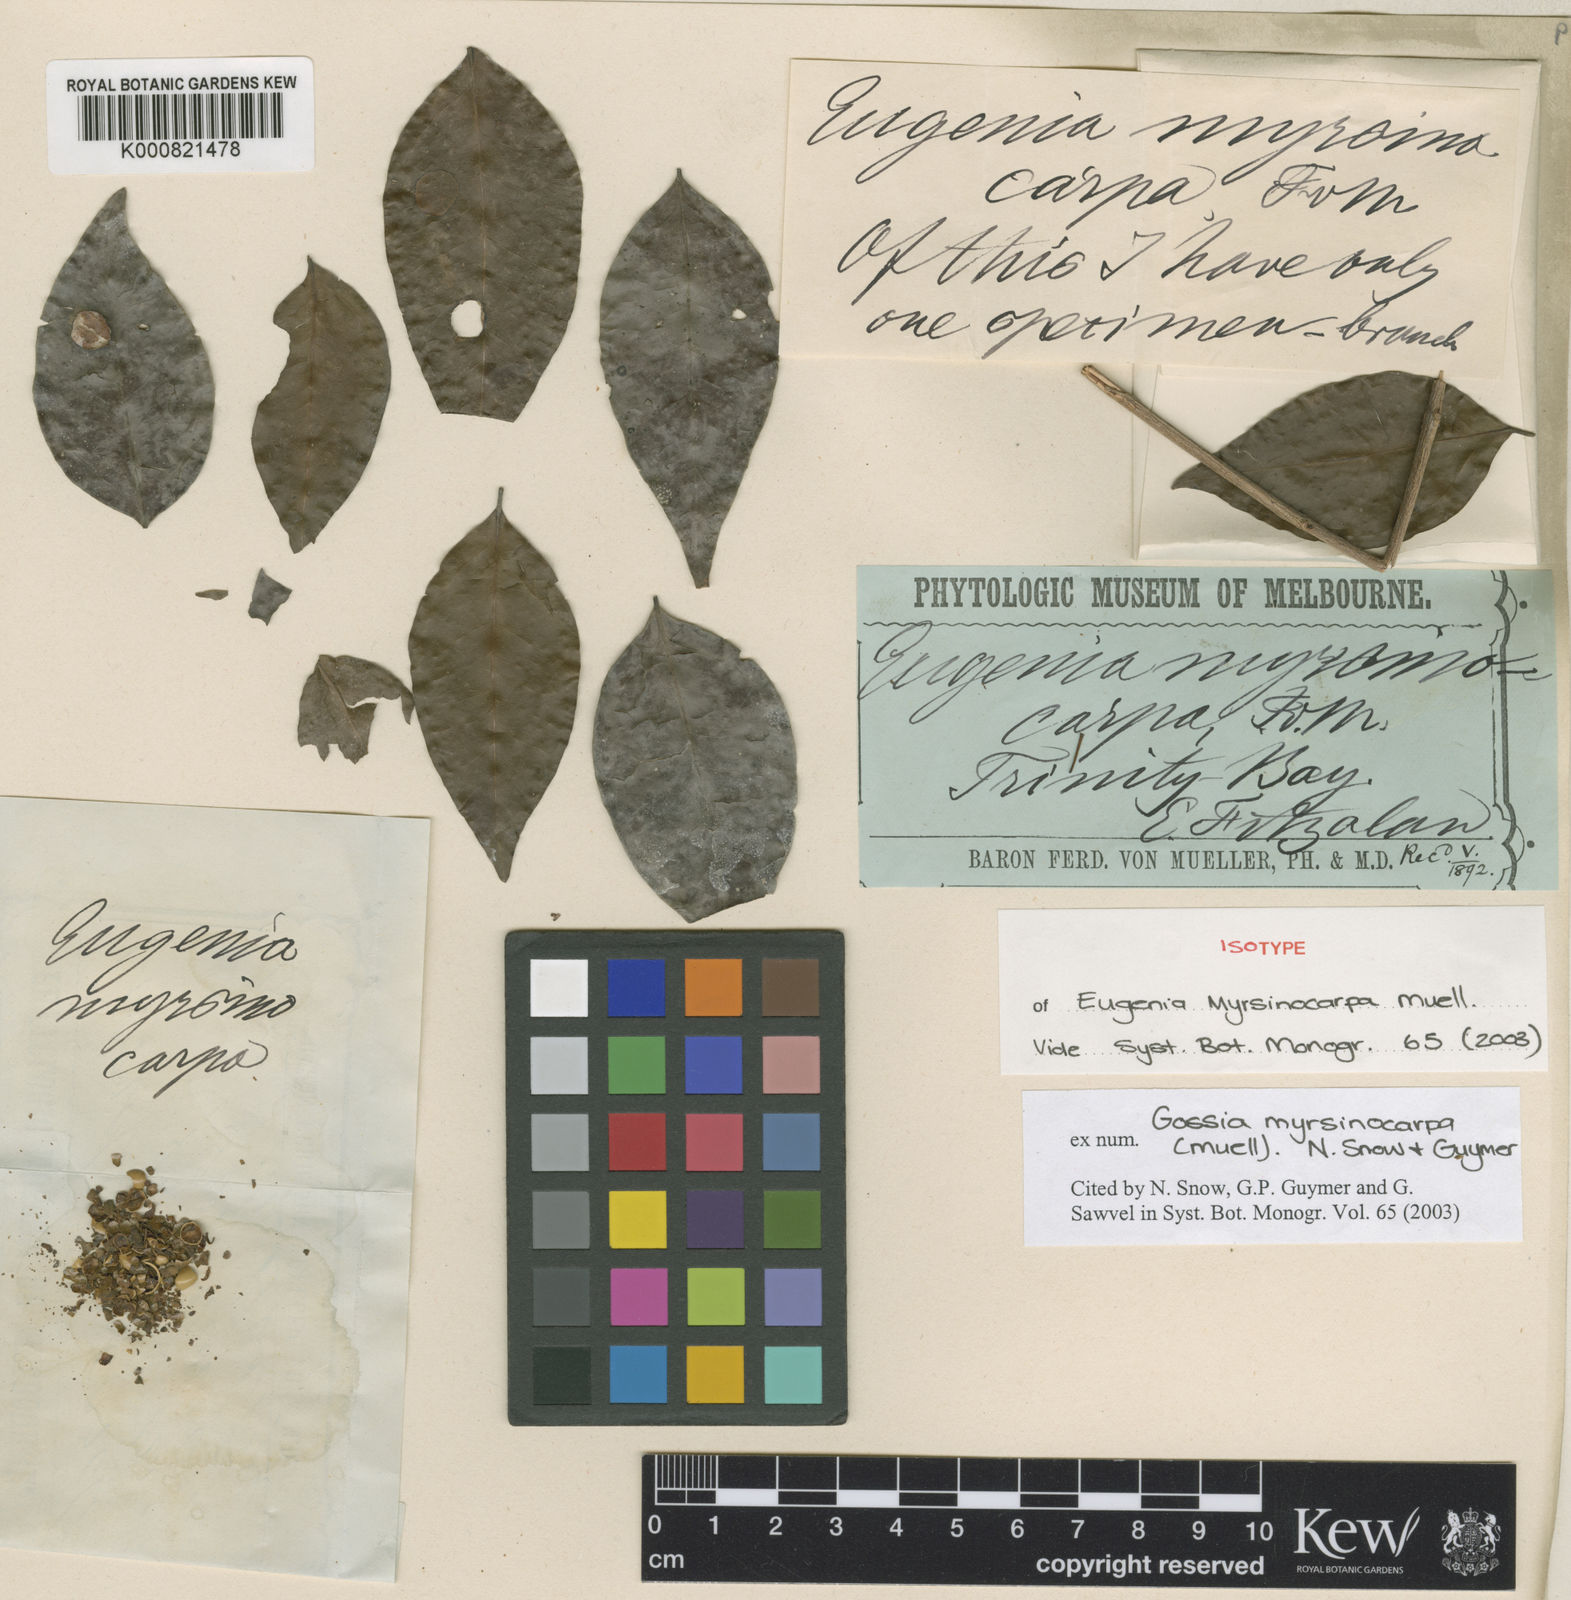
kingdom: Plantae
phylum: Tracheophyta
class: Magnoliopsida
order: Myrtales
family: Myrtaceae
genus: Gossia
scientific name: Gossia myrsinocarpa
